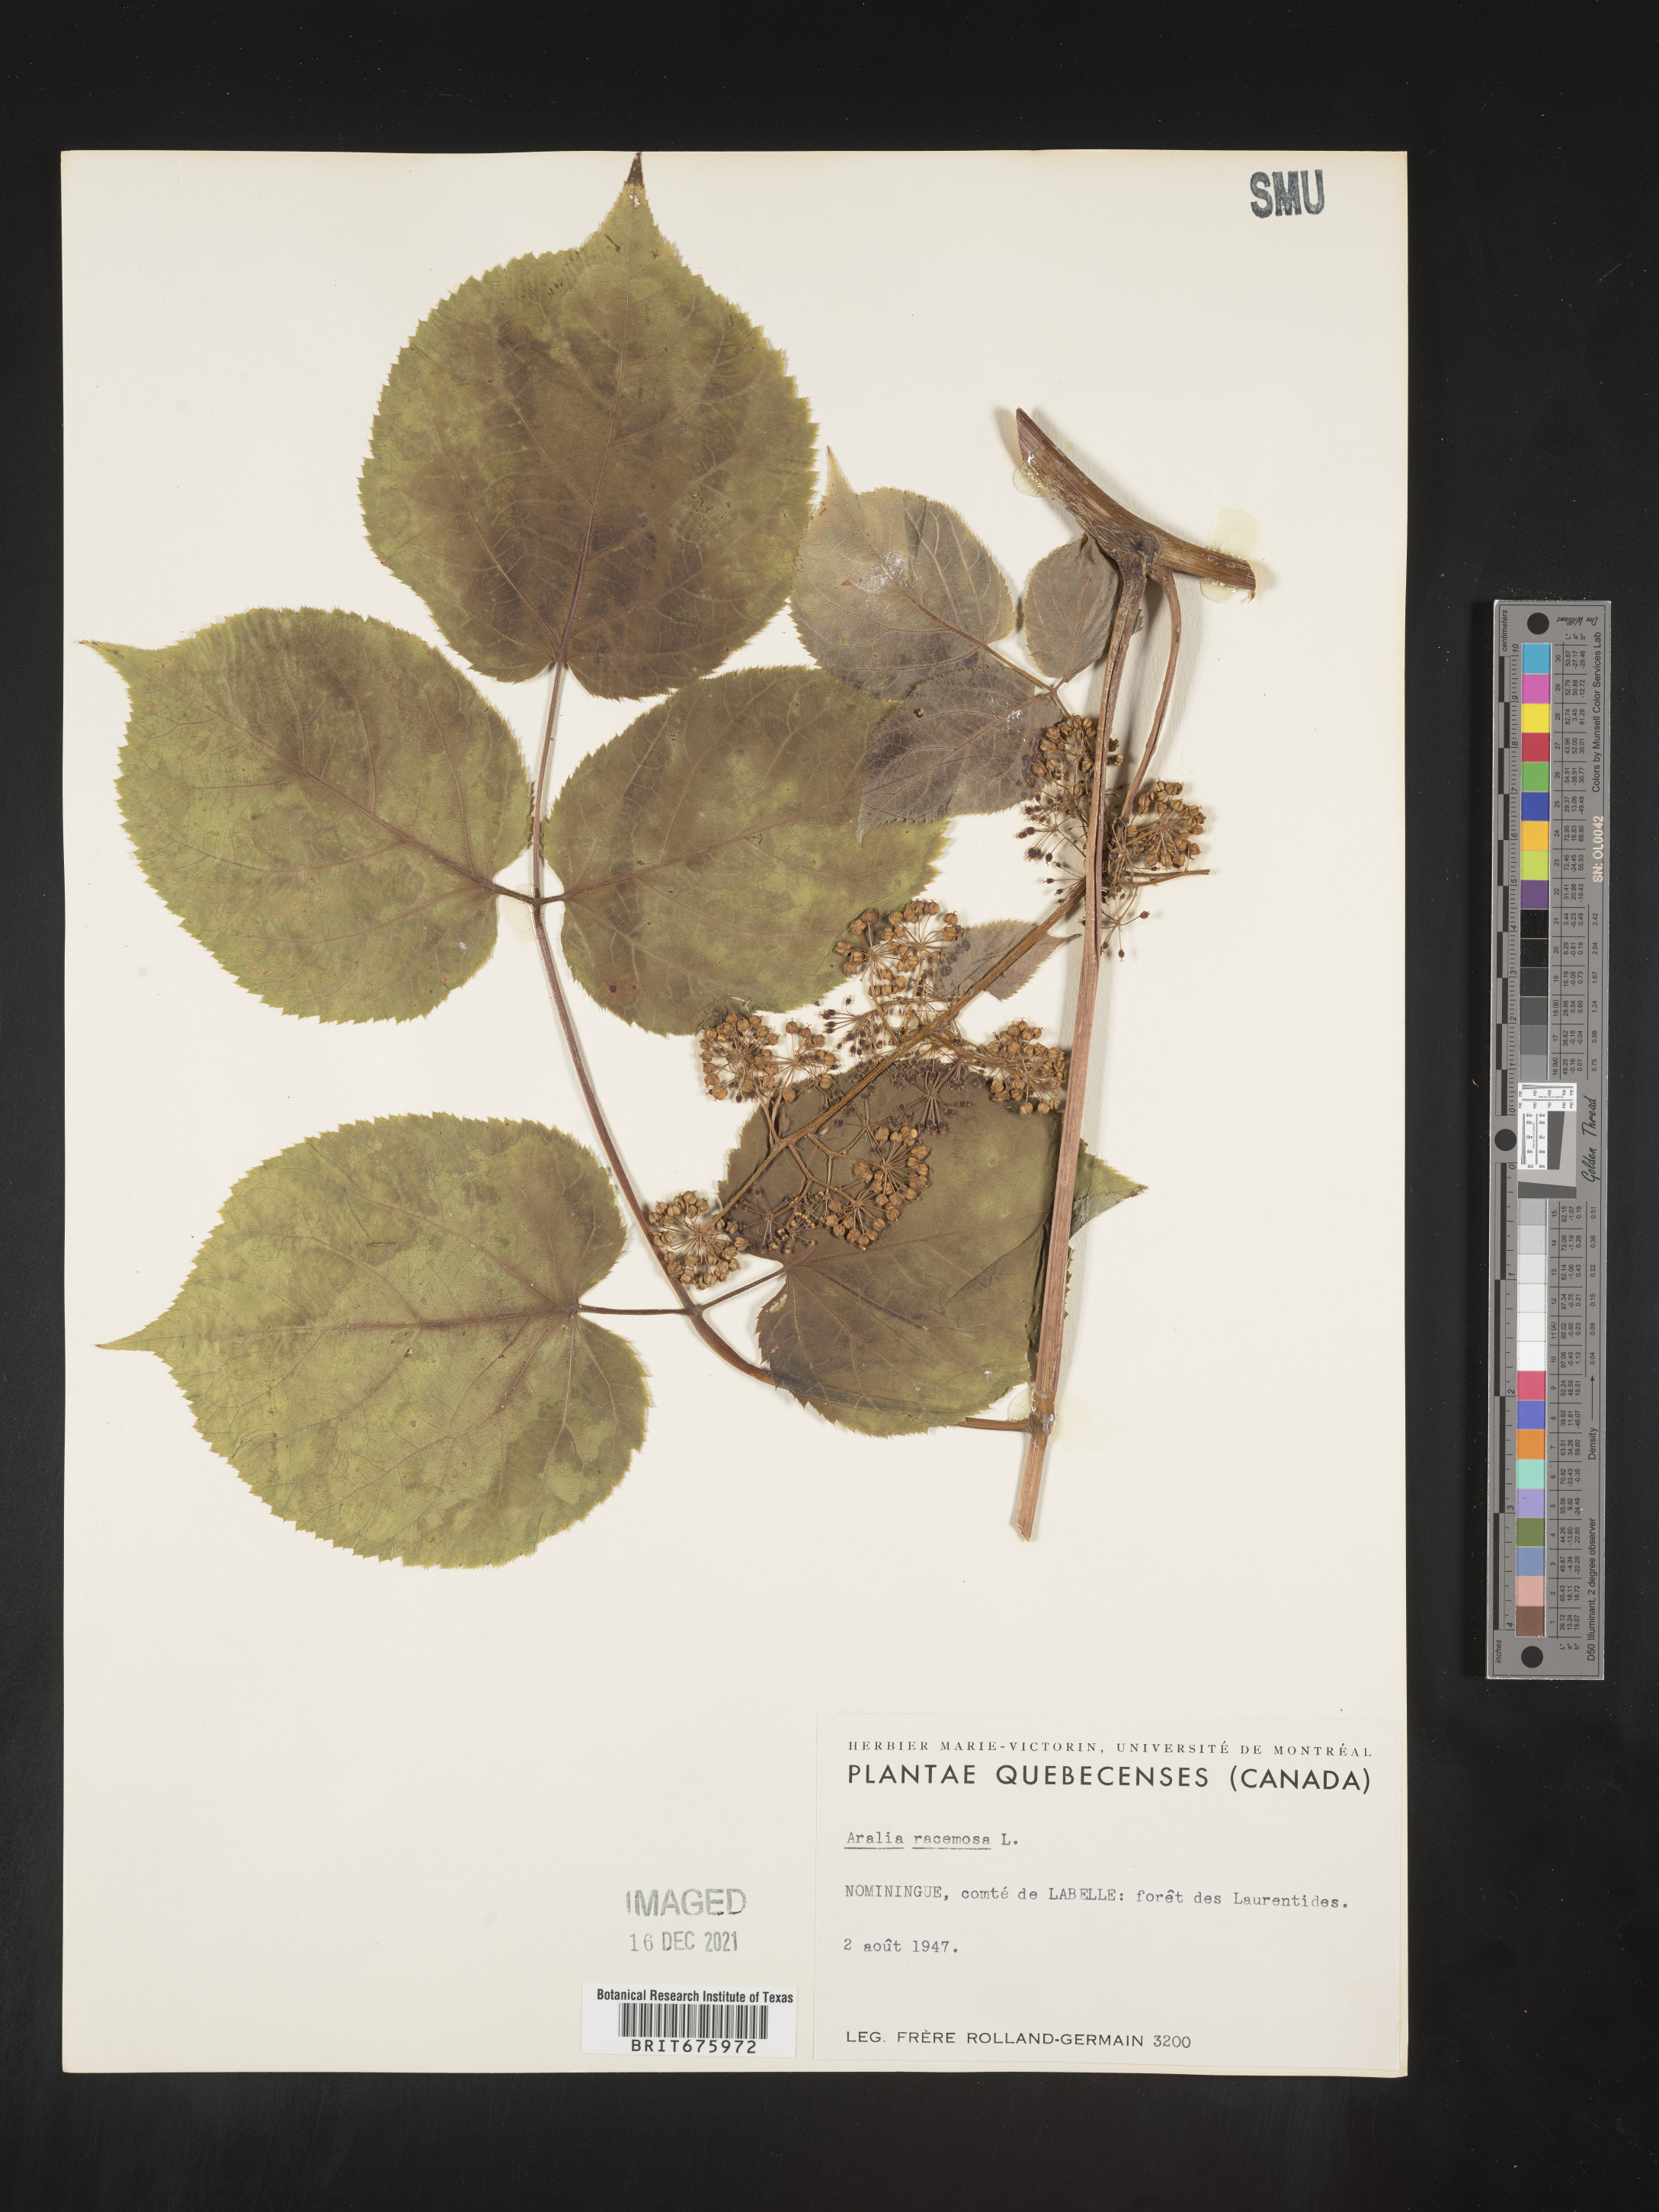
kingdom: Plantae
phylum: Tracheophyta
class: Magnoliopsida
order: Apiales
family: Araliaceae
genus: Aralia
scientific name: Aralia racemosa
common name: American-spikenard
